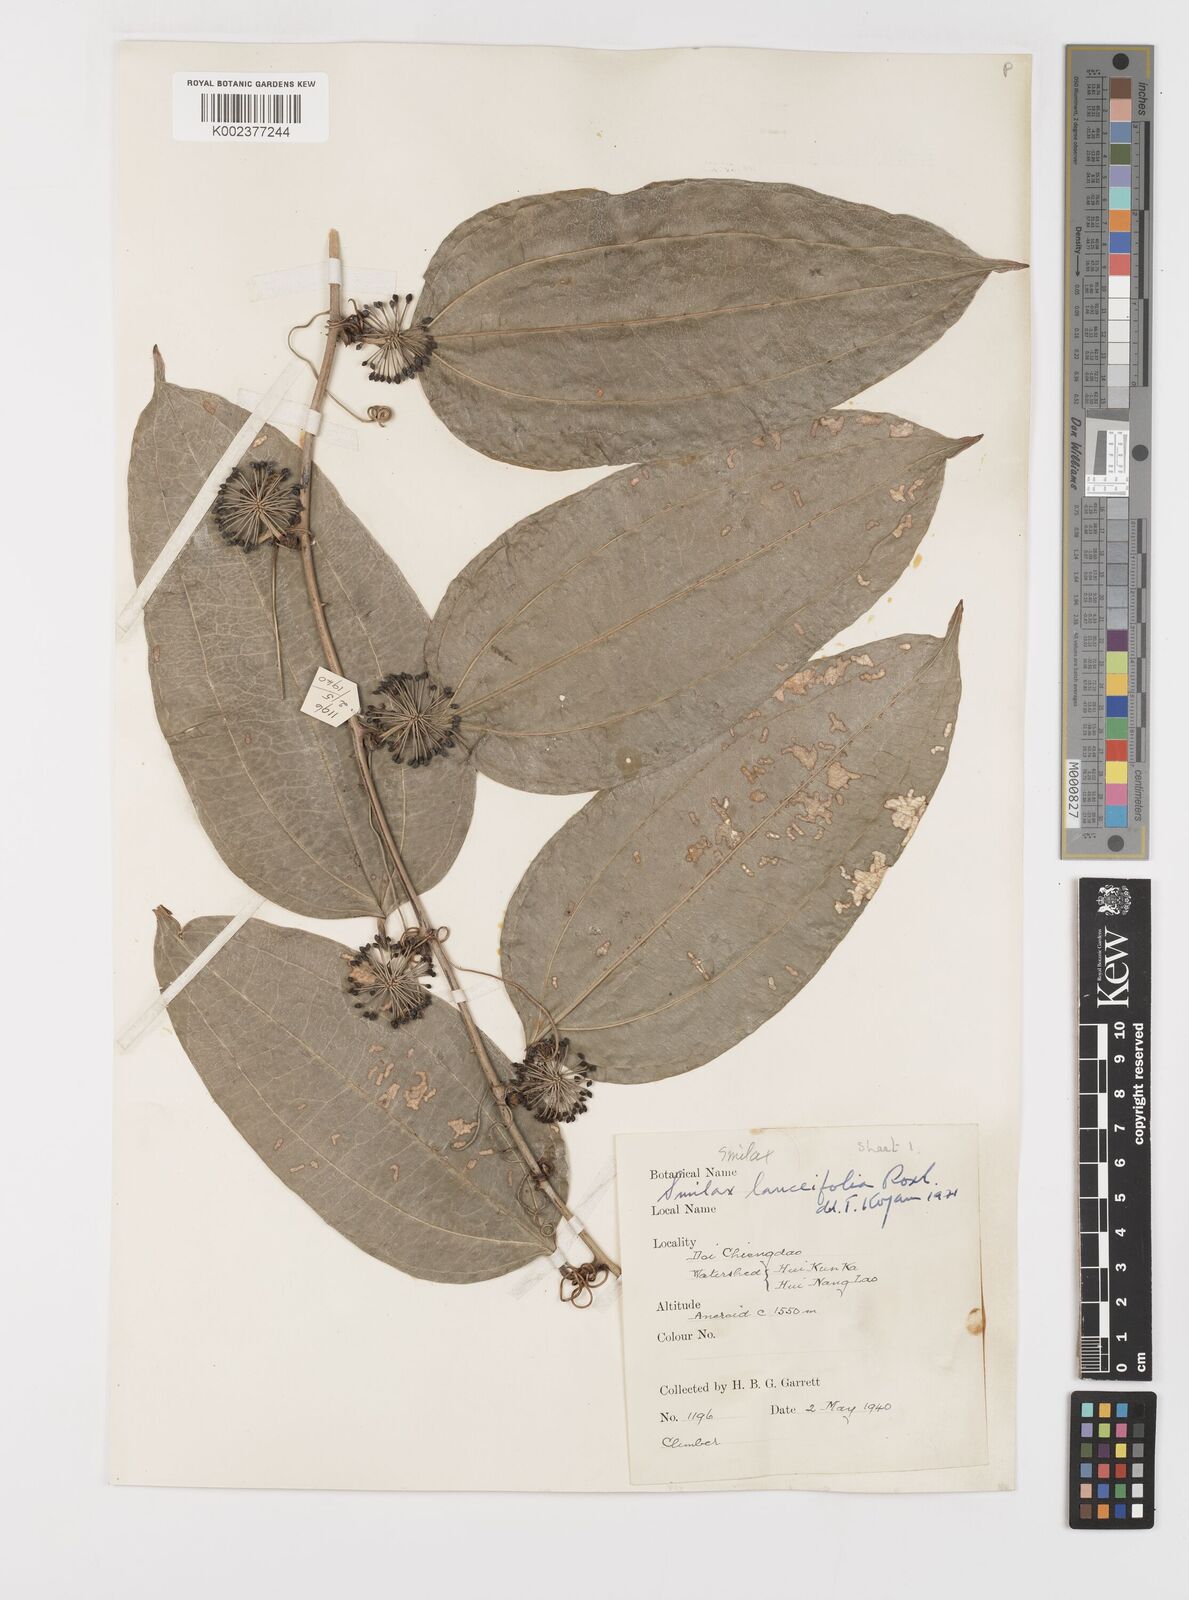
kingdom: Plantae
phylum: Tracheophyta
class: Liliopsida
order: Liliales
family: Smilacaceae
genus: Smilax
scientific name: Smilax lanceifolia
